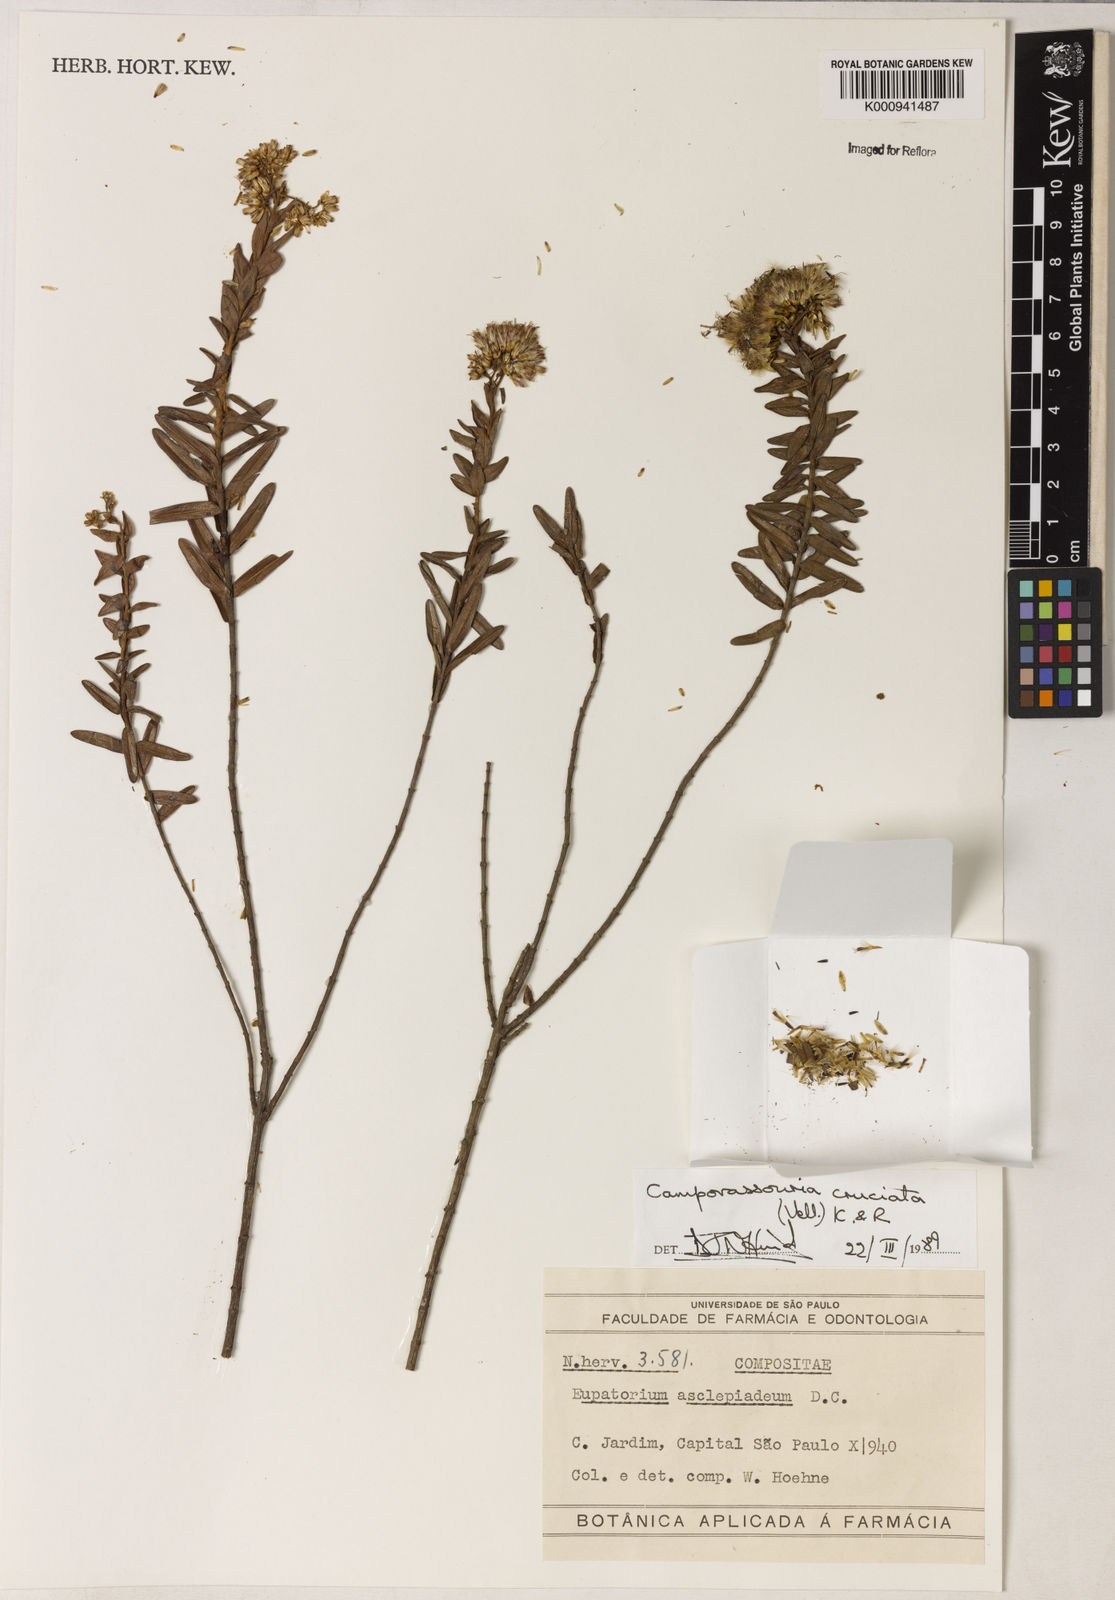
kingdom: Plantae
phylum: Tracheophyta
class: Magnoliopsida
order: Asterales
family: Asteraceae
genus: Campovassouria
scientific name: Campovassouria cruciata
